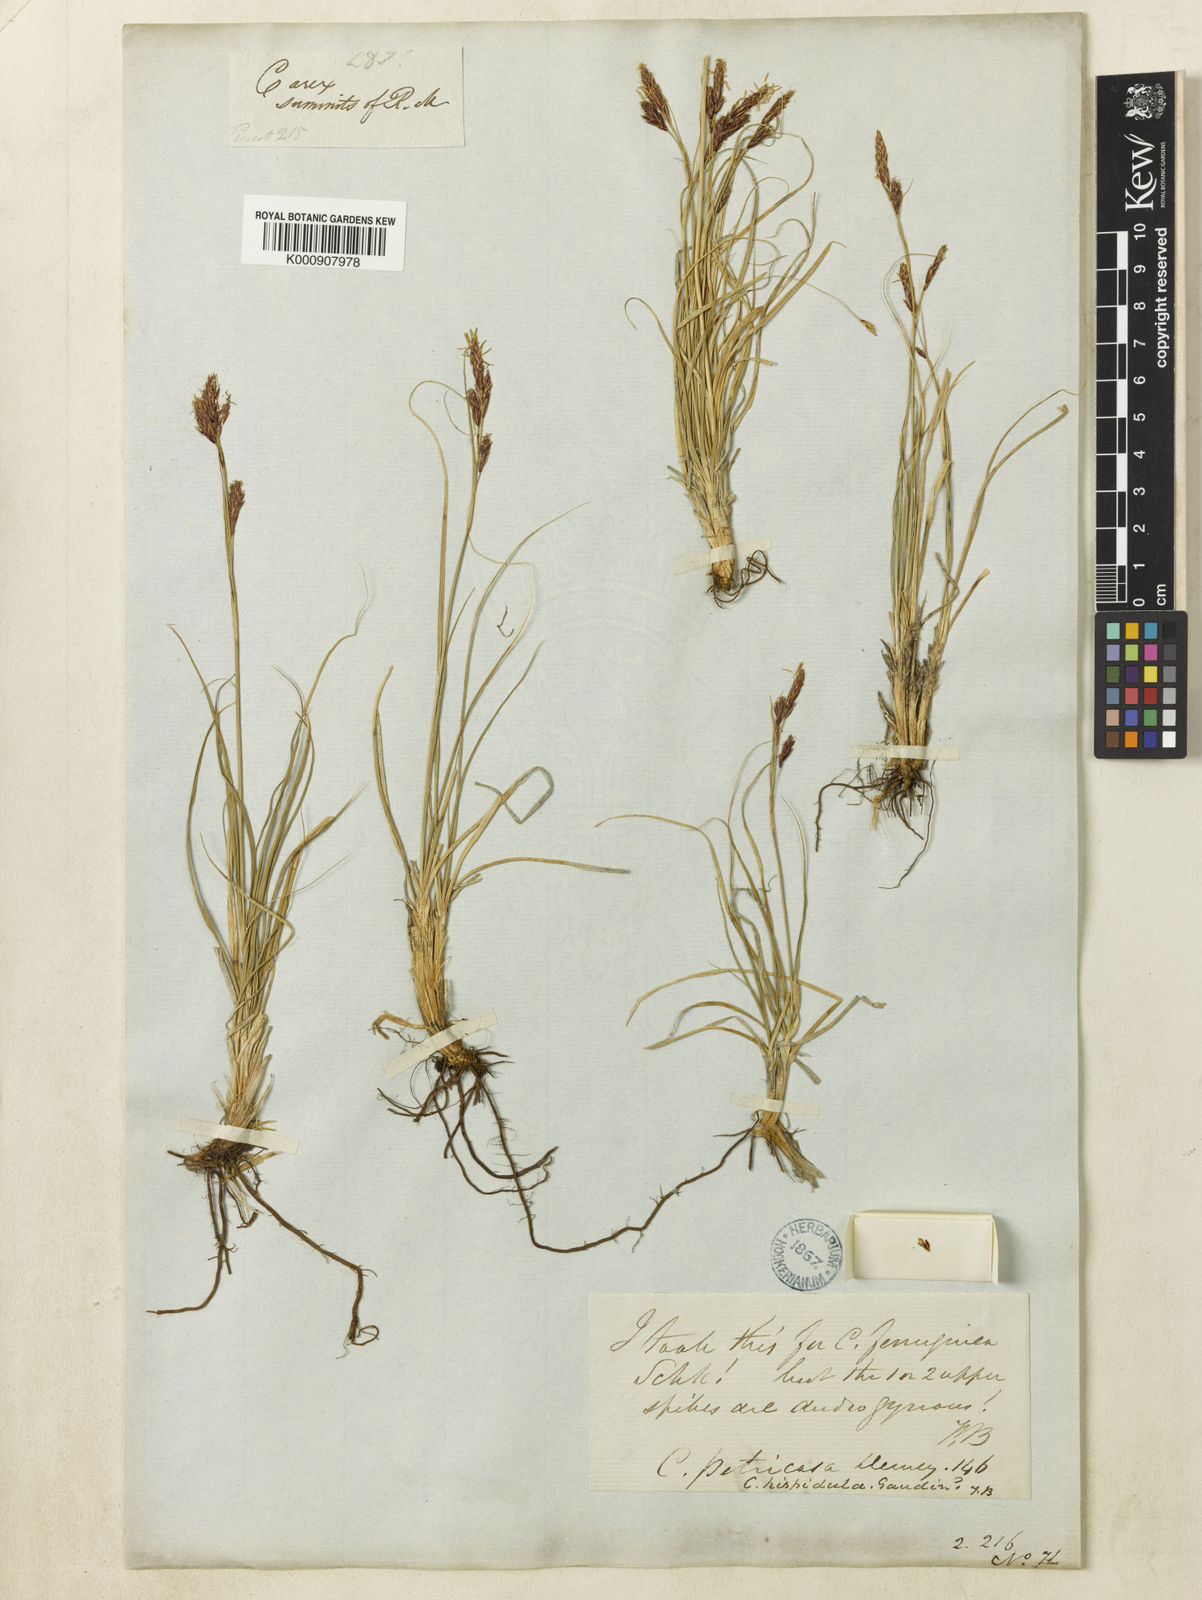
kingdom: Plantae
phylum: Tracheophyta
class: Liliopsida
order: Poales
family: Cyperaceae
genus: Carex
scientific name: Carex petricosa
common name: Rock sedge
